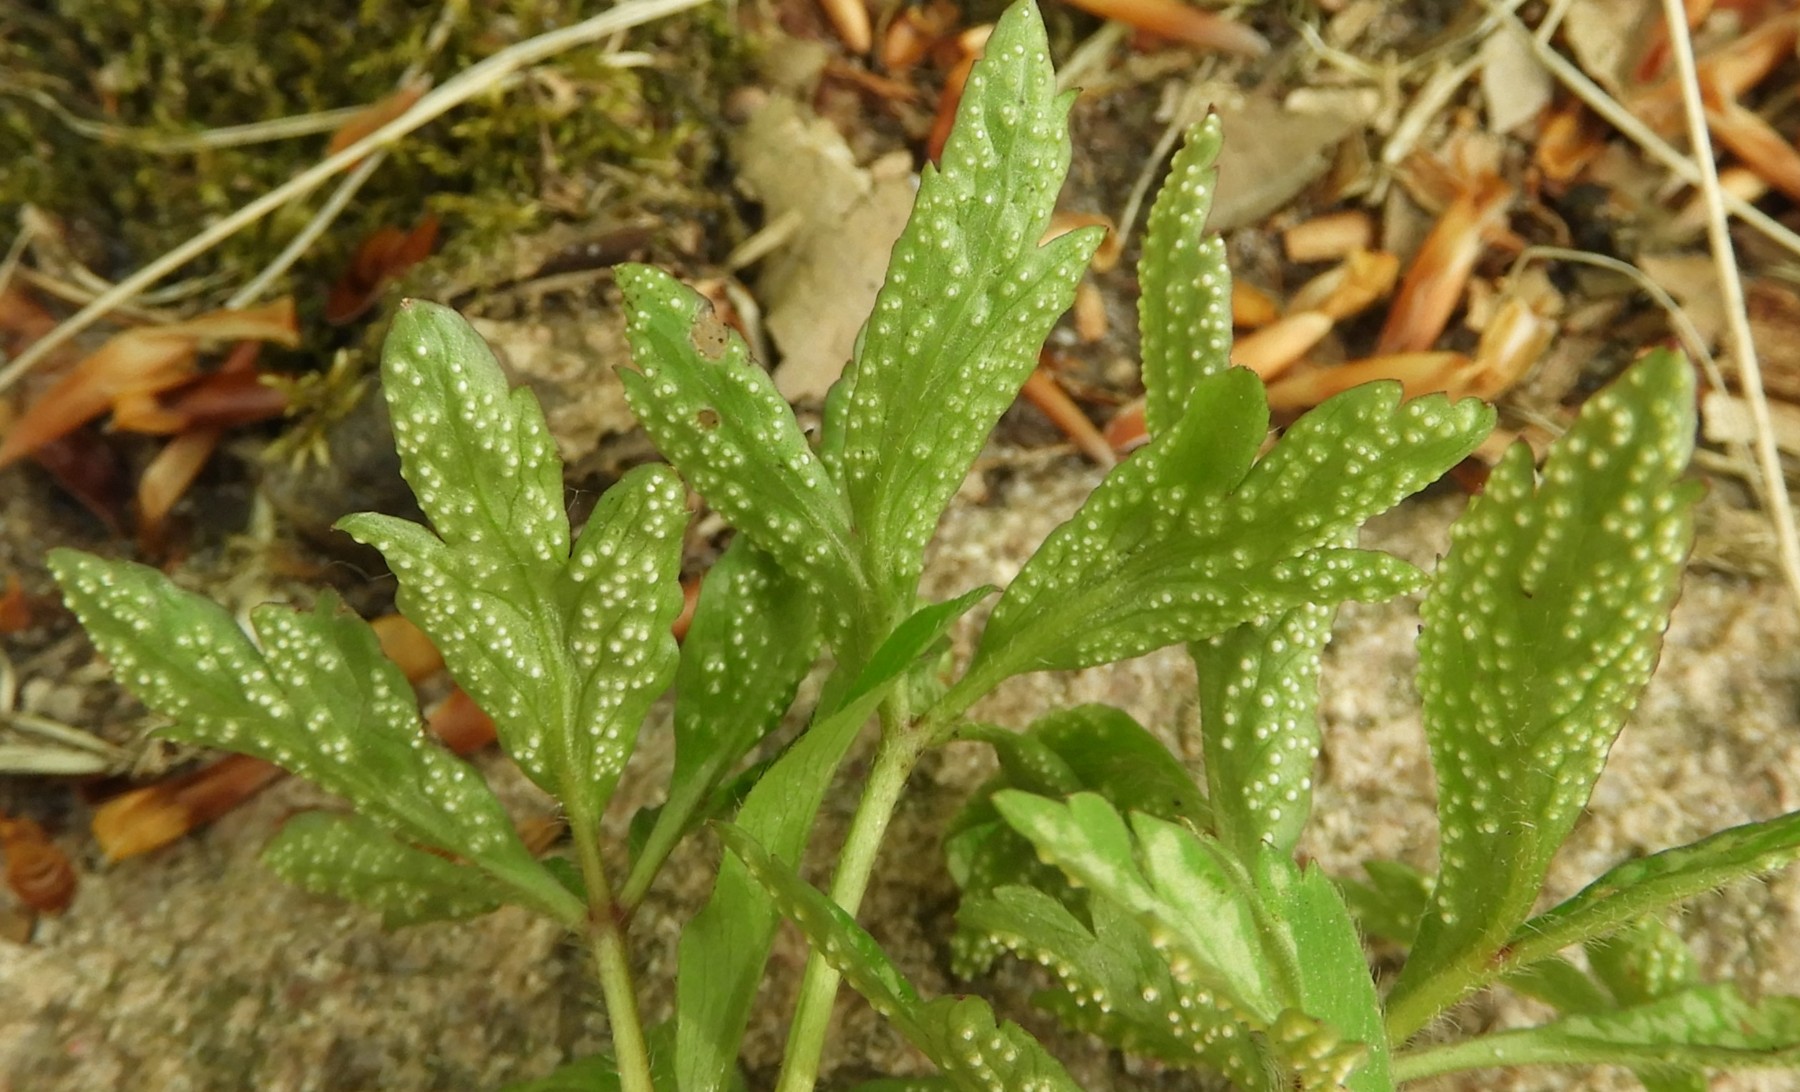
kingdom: Fungi
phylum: Basidiomycota
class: Pucciniomycetes
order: Pucciniales
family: Ochropsoraceae
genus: Ochropsora
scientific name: Ochropsora ariae
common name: anemone-okkerpletrust
